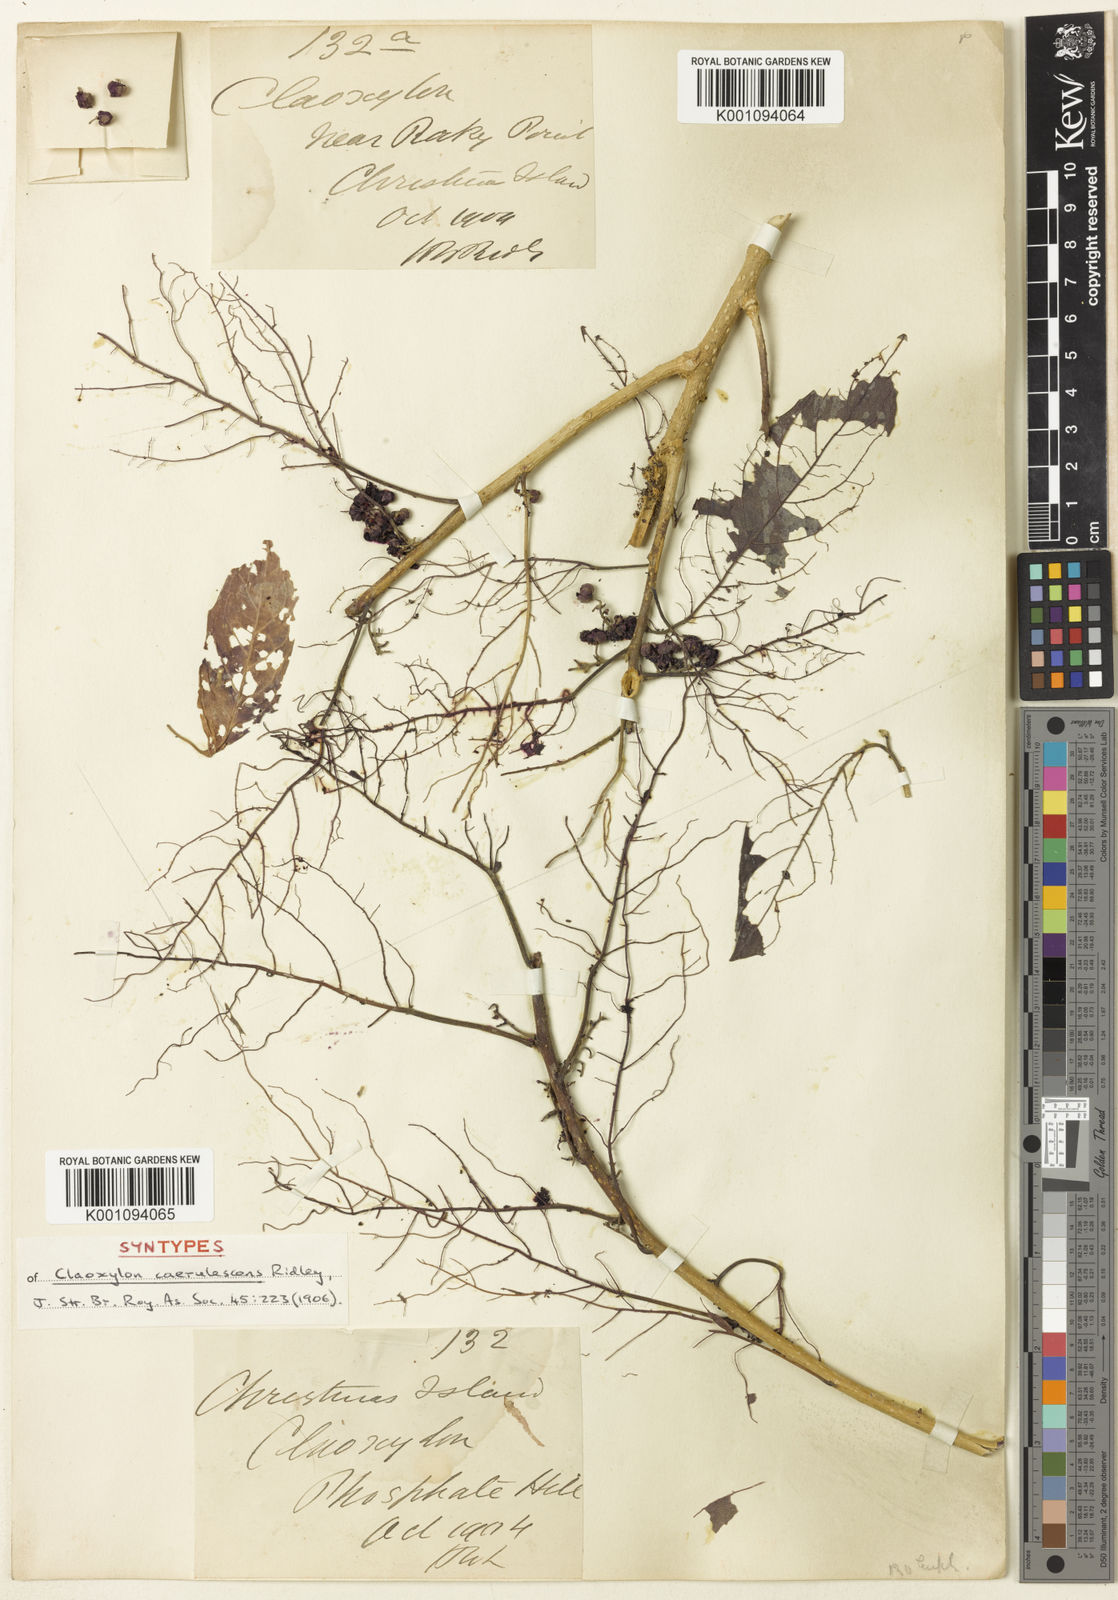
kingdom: Plantae
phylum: Tracheophyta
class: Magnoliopsida
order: Malpighiales
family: Euphorbiaceae
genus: Claoxylon
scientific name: Claoxylon indicum
